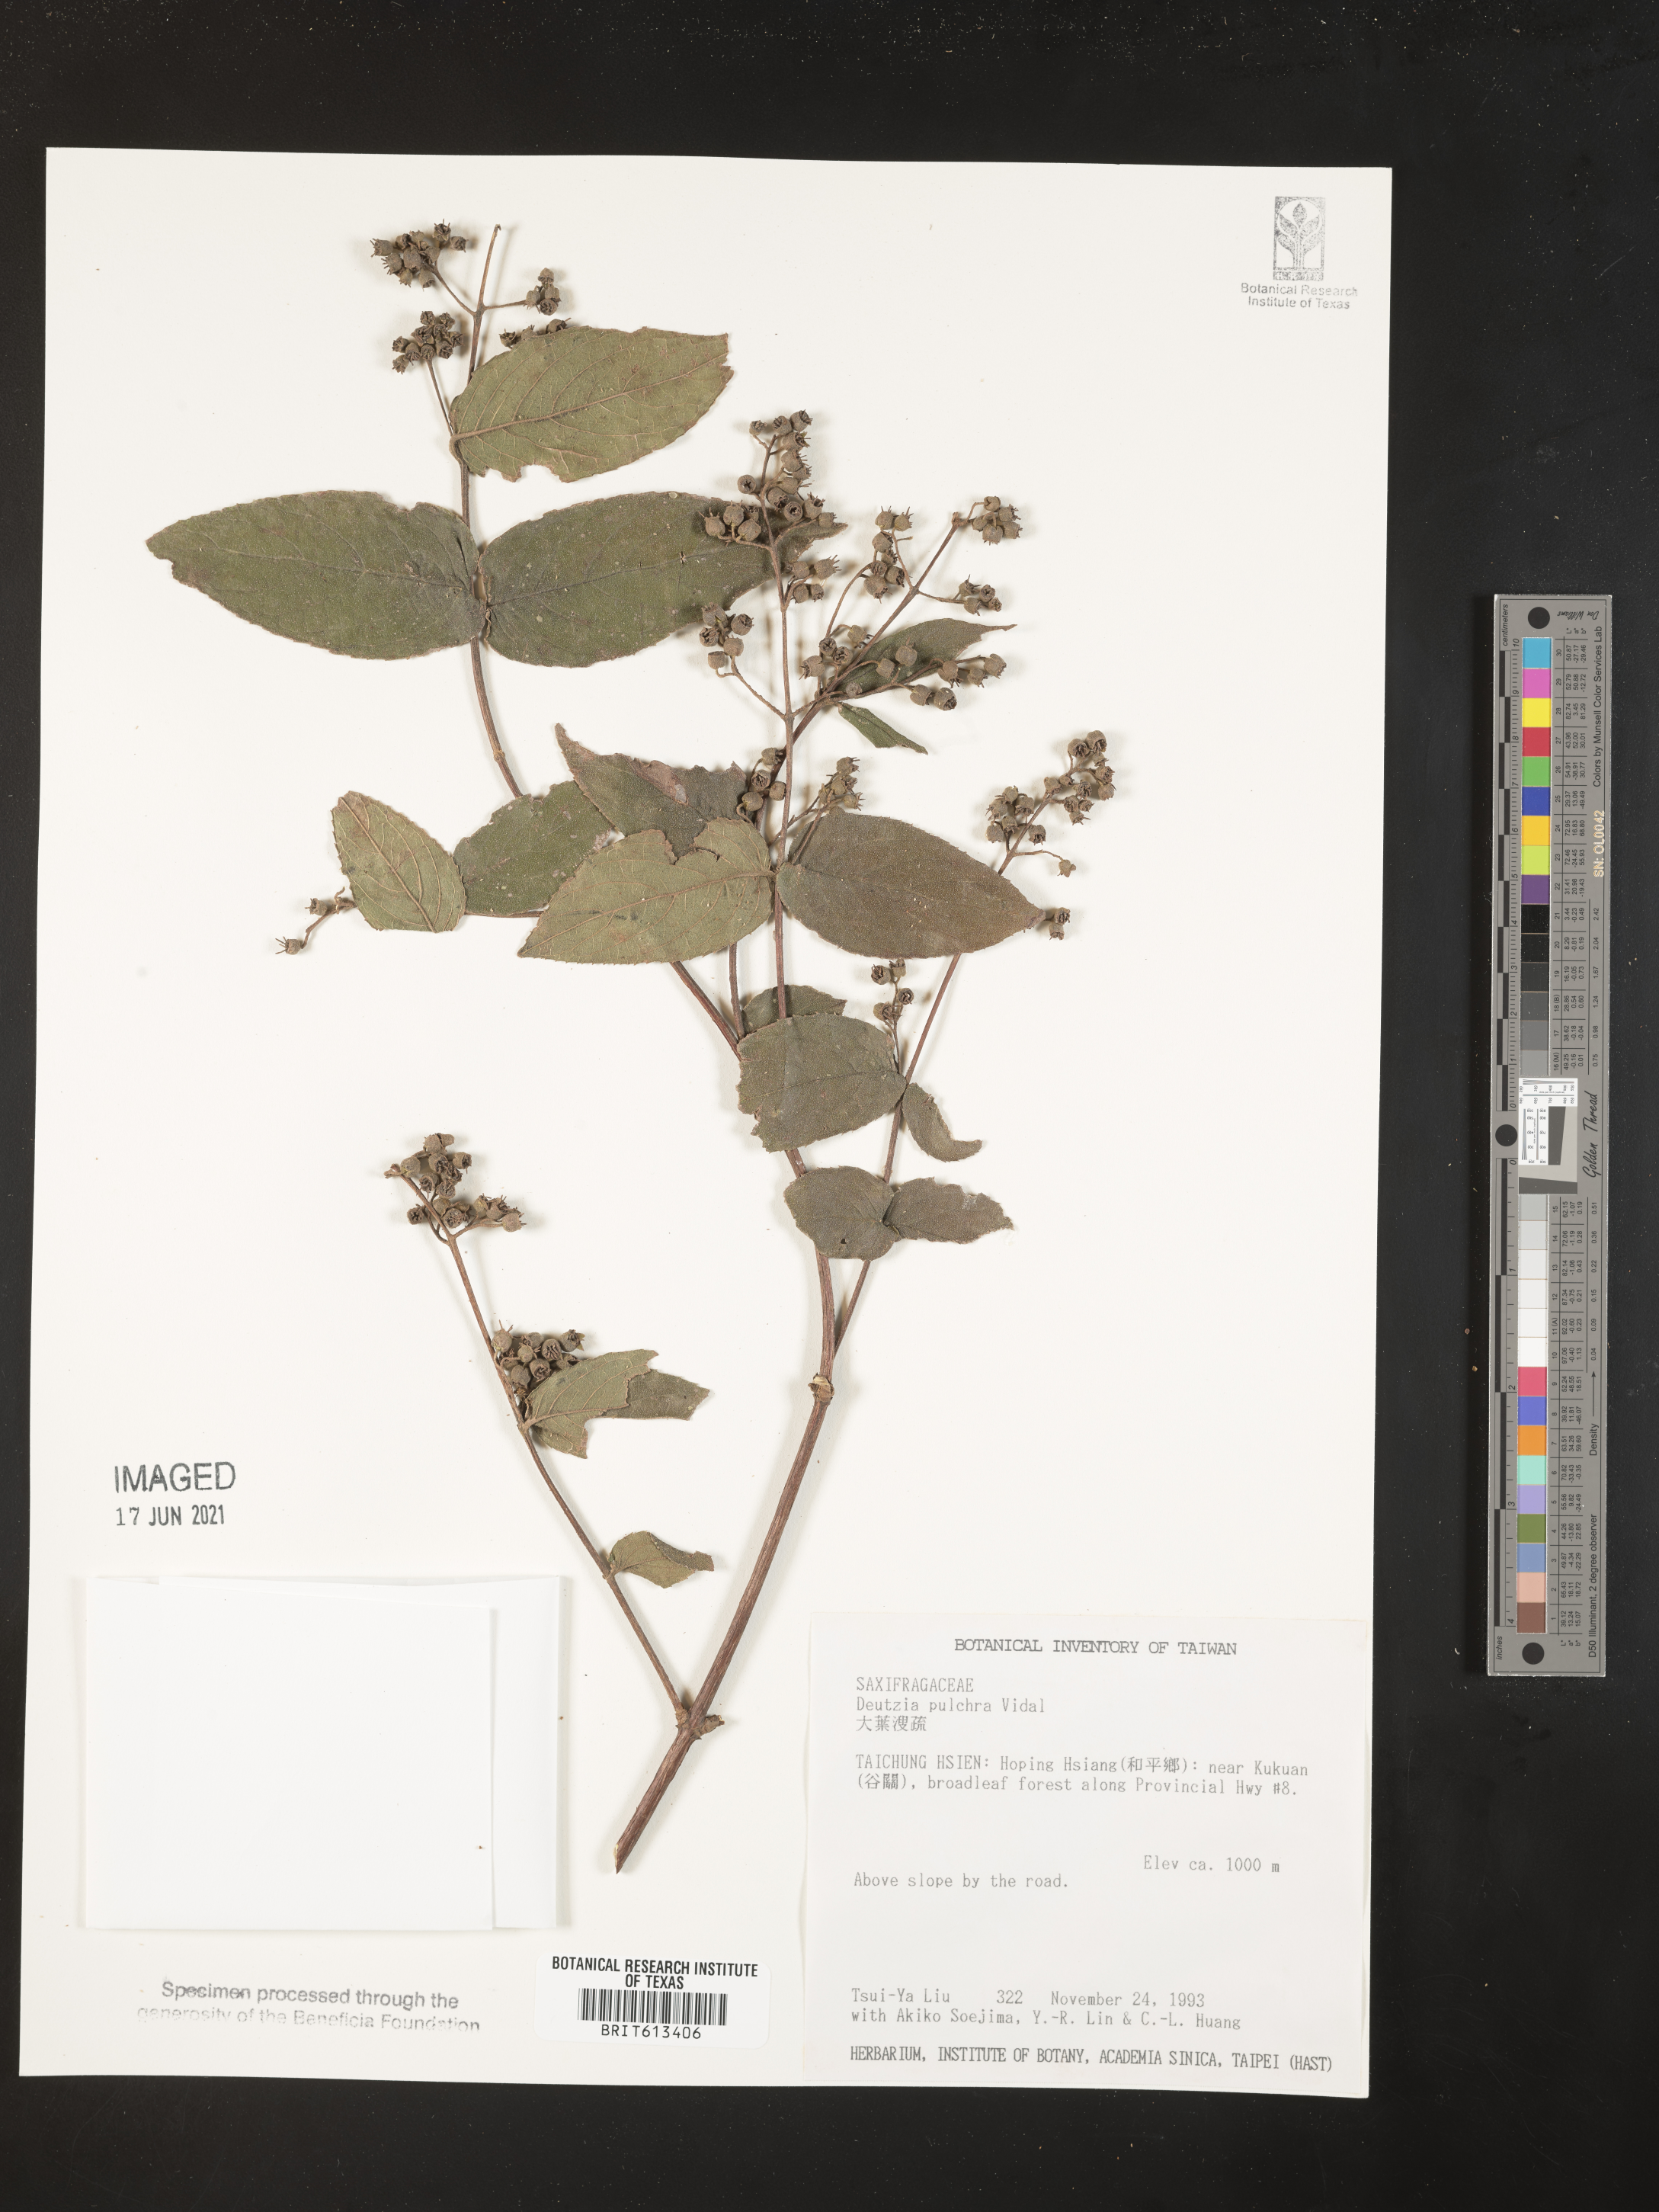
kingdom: Plantae
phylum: Tracheophyta
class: Magnoliopsida
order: Cornales
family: Hydrangeaceae
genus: Deutzia
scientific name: Deutzia pulchra
